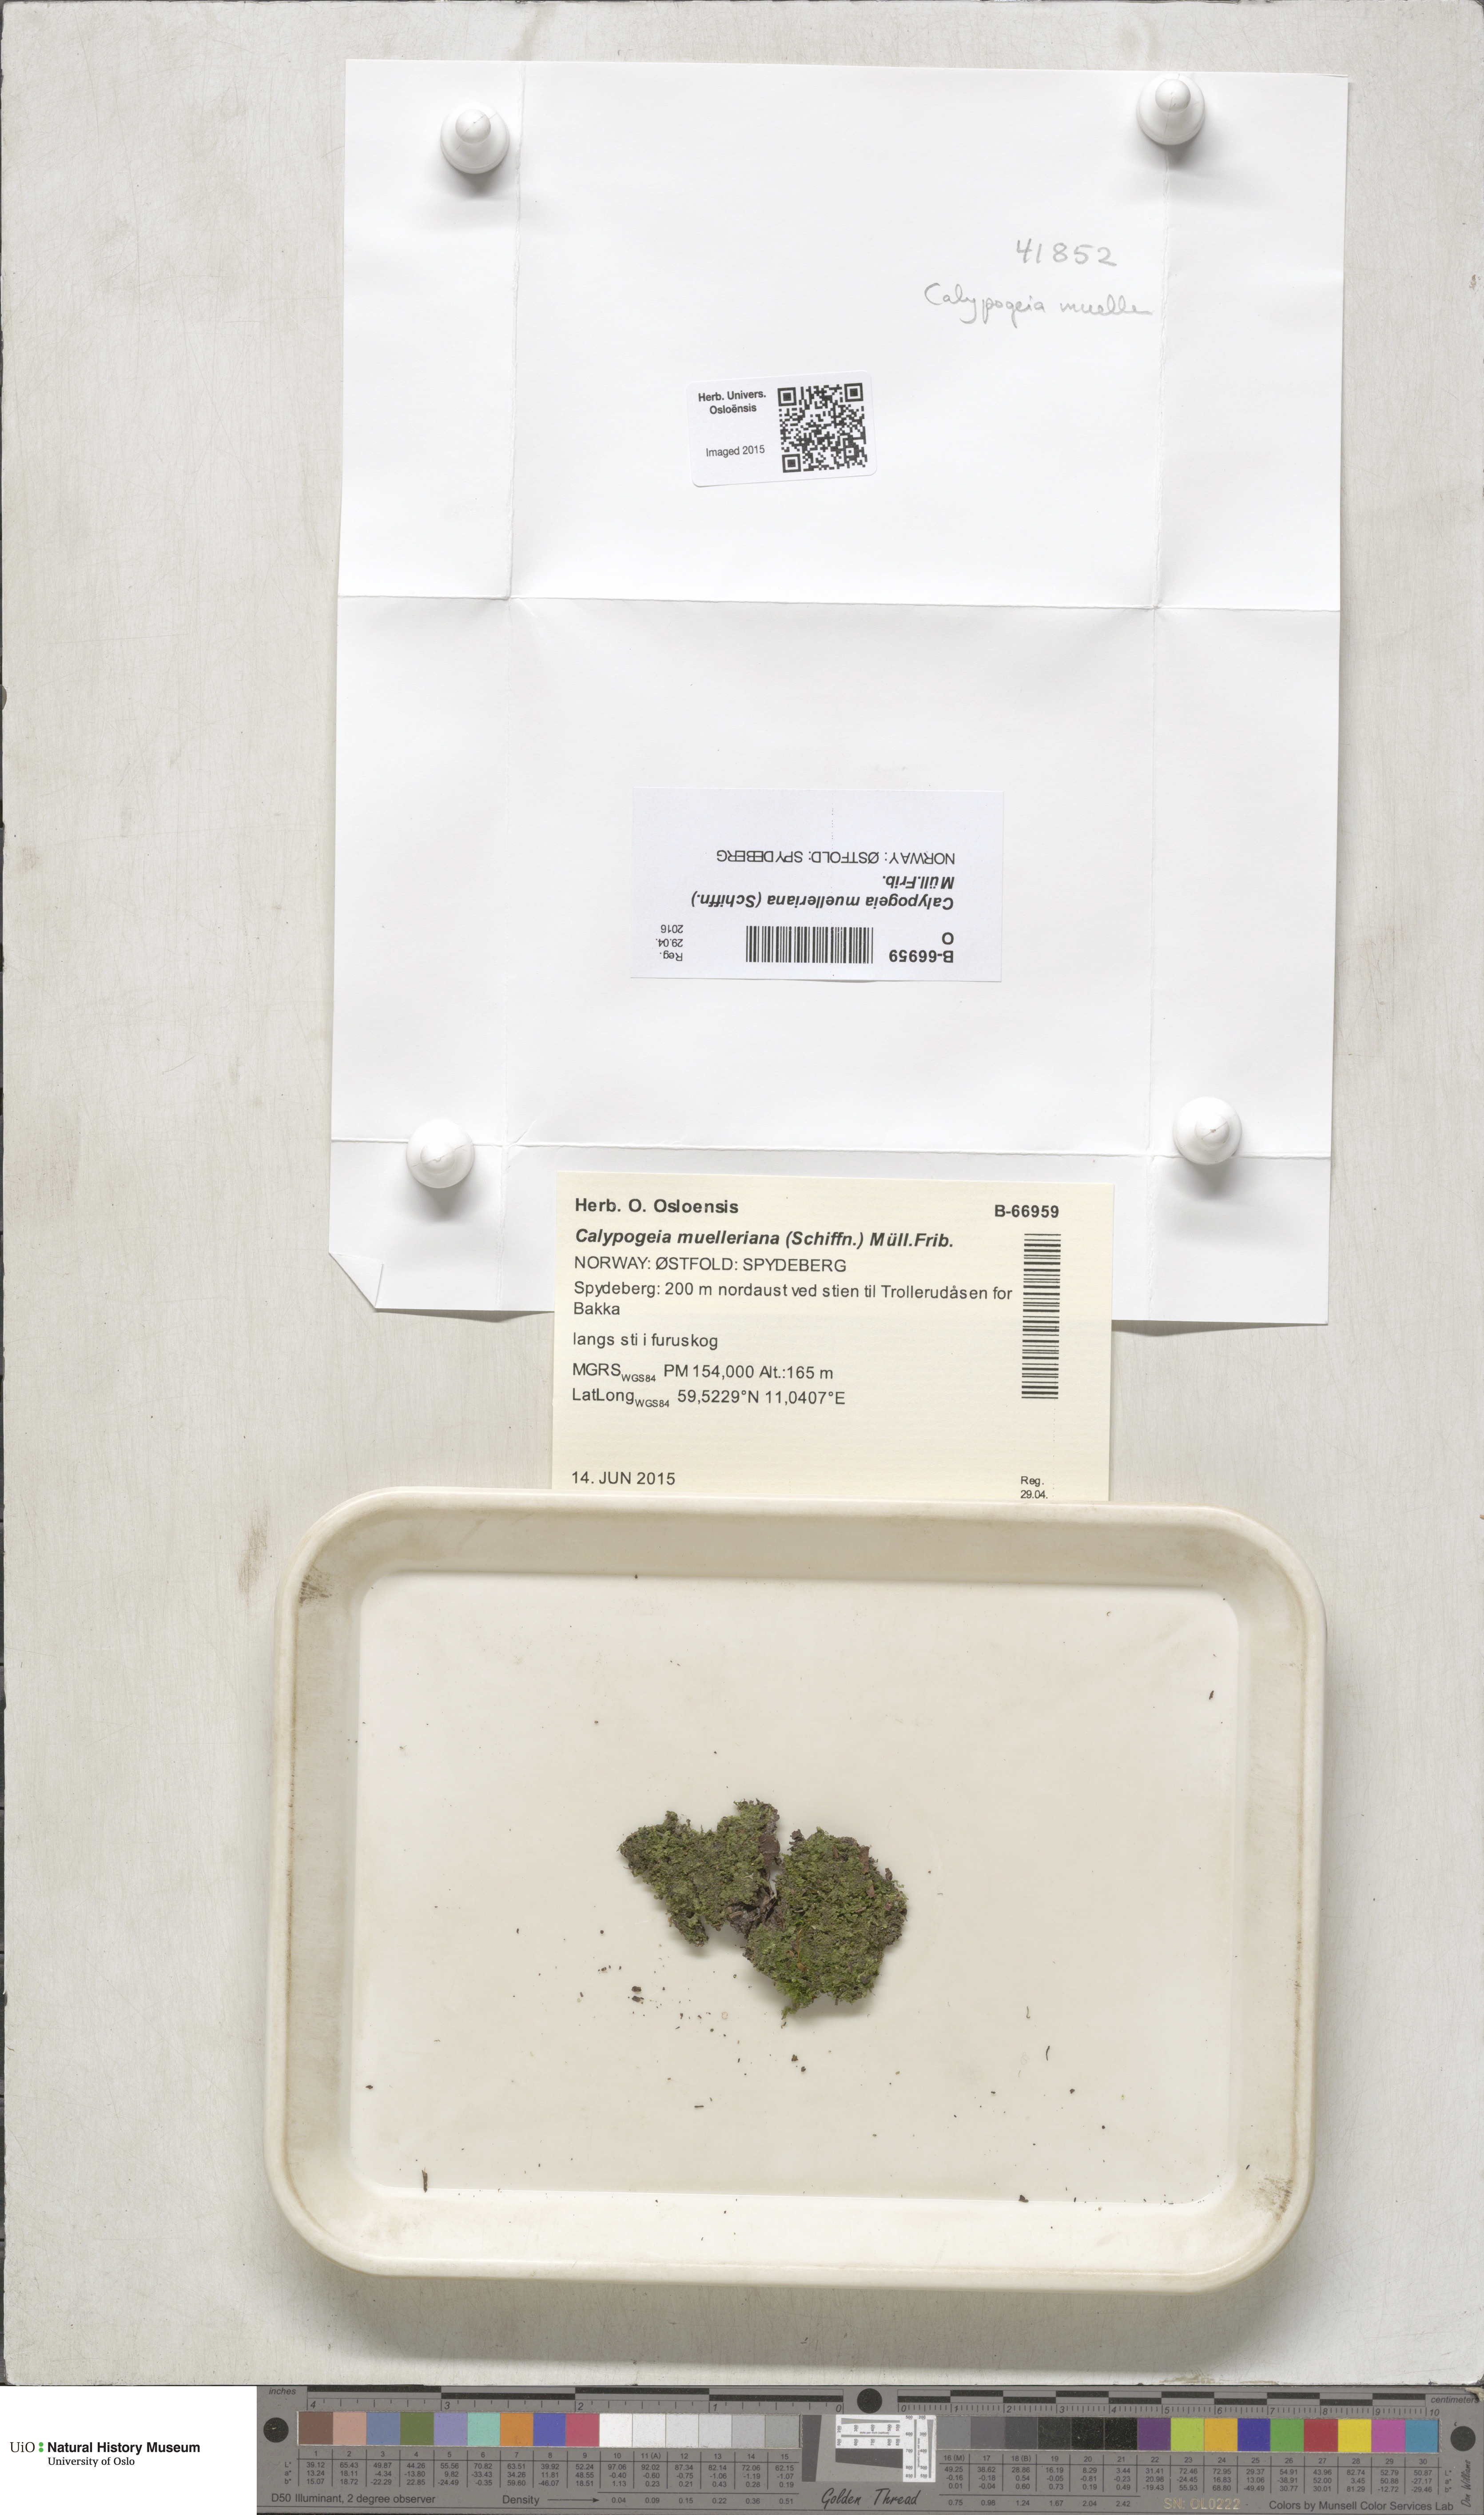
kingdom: Plantae
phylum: Marchantiophyta
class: Jungermanniopsida
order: Jungermanniales
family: Calypogeiaceae
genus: Calypogeia
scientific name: Calypogeia muelleriana
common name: Mueller s pouchwort
